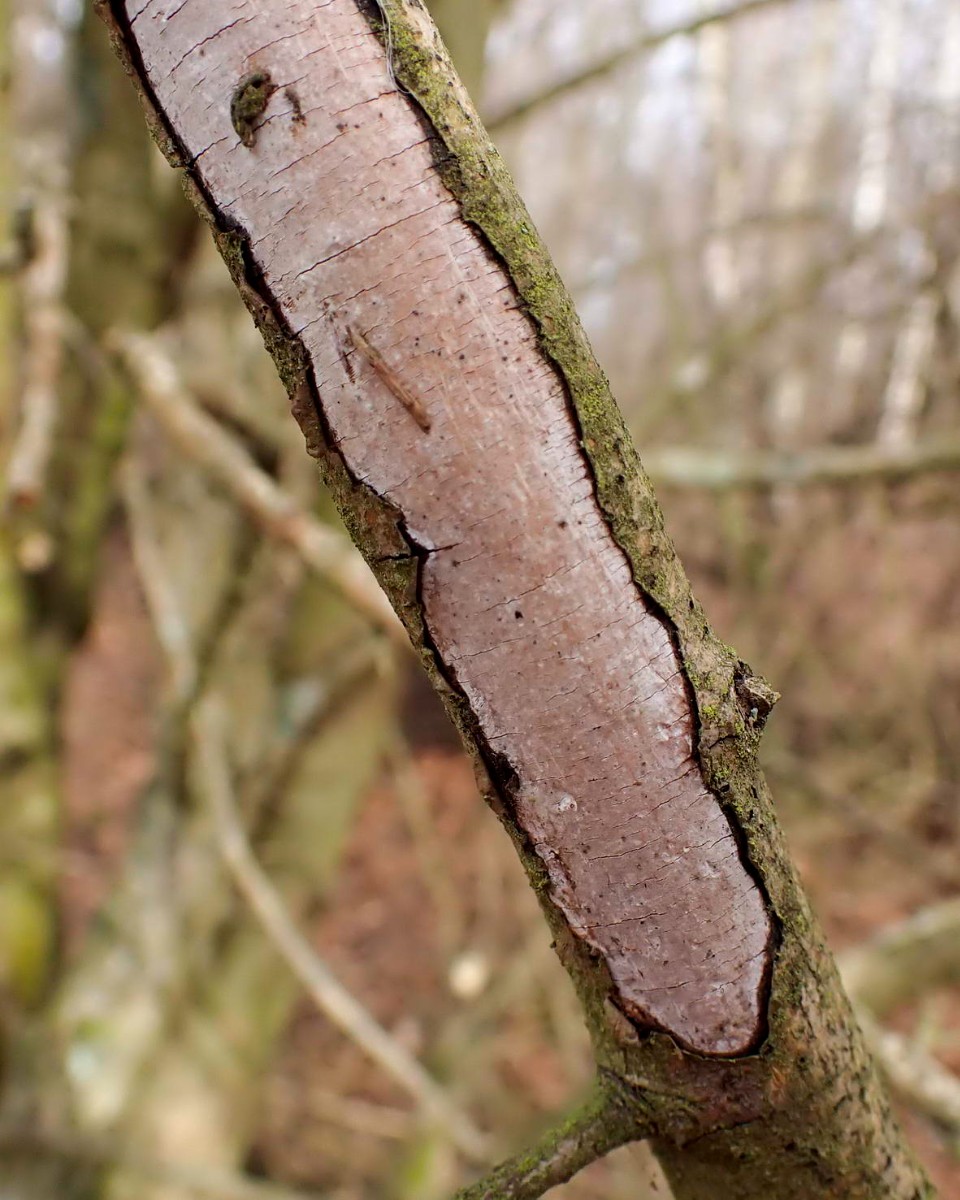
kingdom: Fungi
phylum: Basidiomycota
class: Agaricomycetes
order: Corticiales
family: Vuilleminiaceae
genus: Vuilleminia
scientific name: Vuilleminia cystidiata
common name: tjørne-barksprænger
